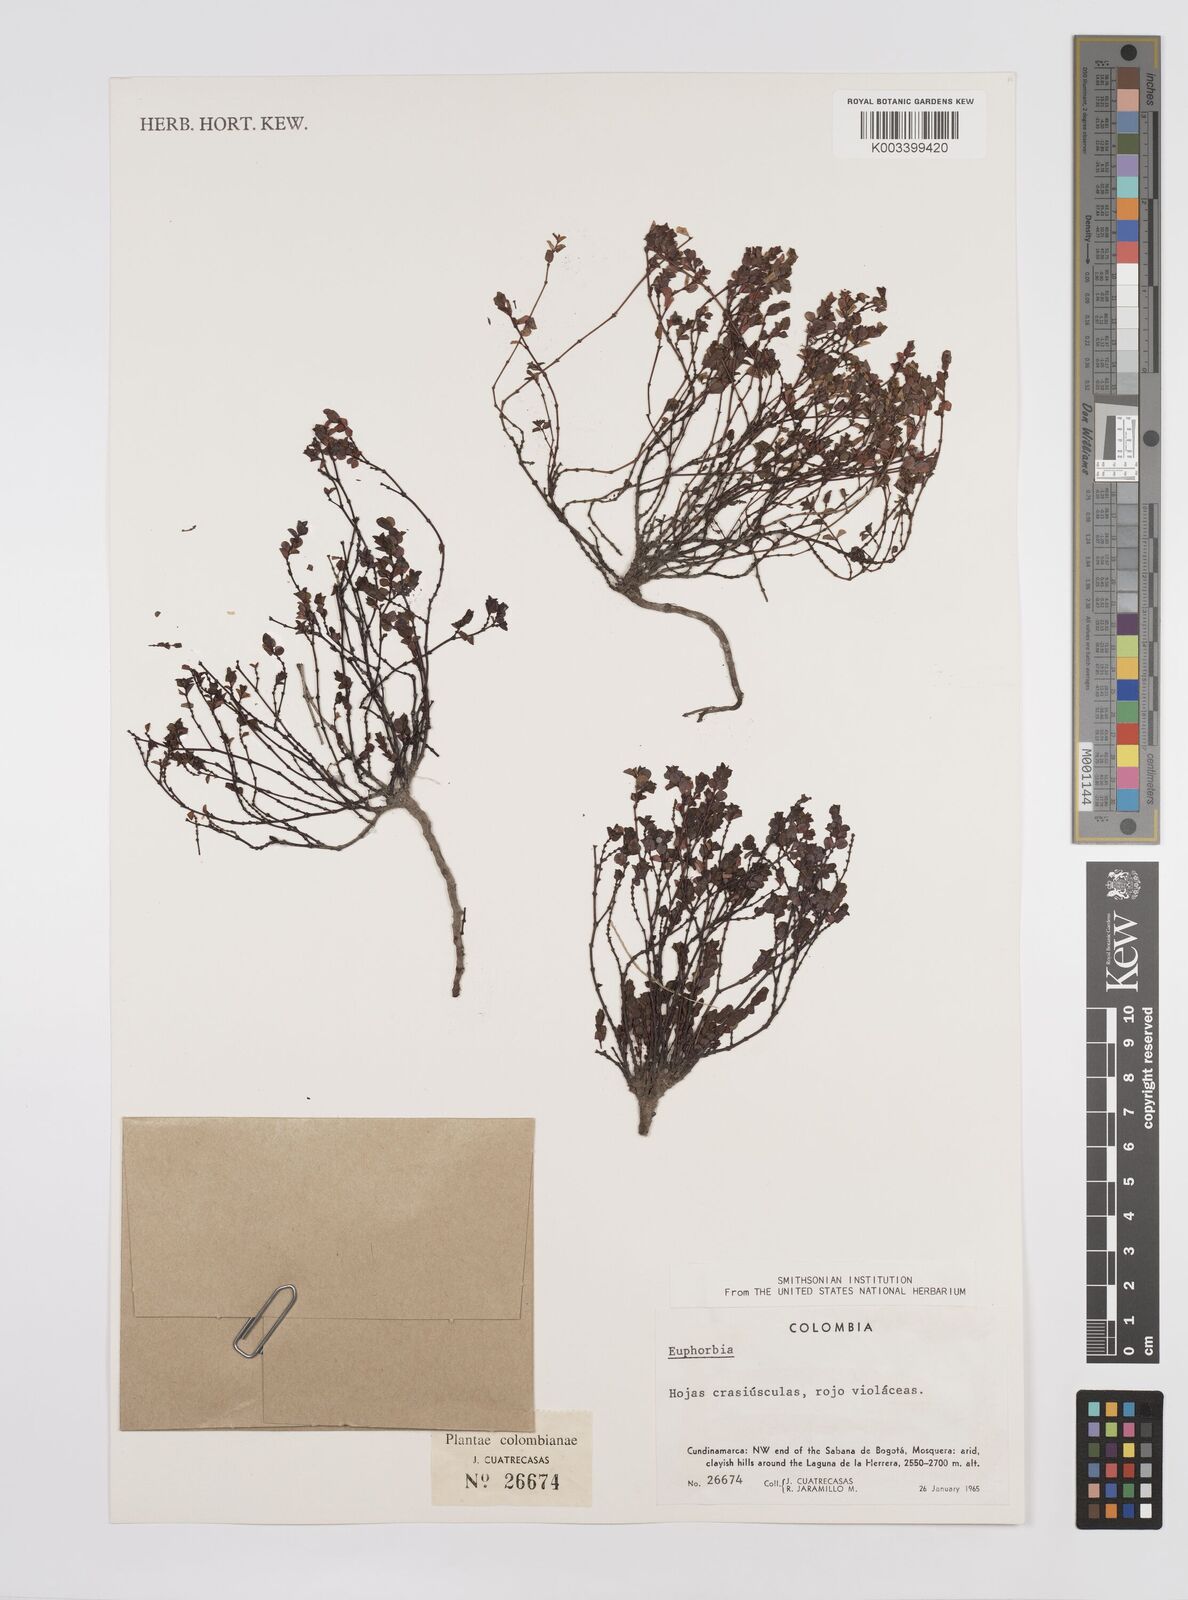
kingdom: Plantae
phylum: Tracheophyta
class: Magnoliopsida
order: Malpighiales
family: Euphorbiaceae
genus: Euphorbia
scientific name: Euphorbia
